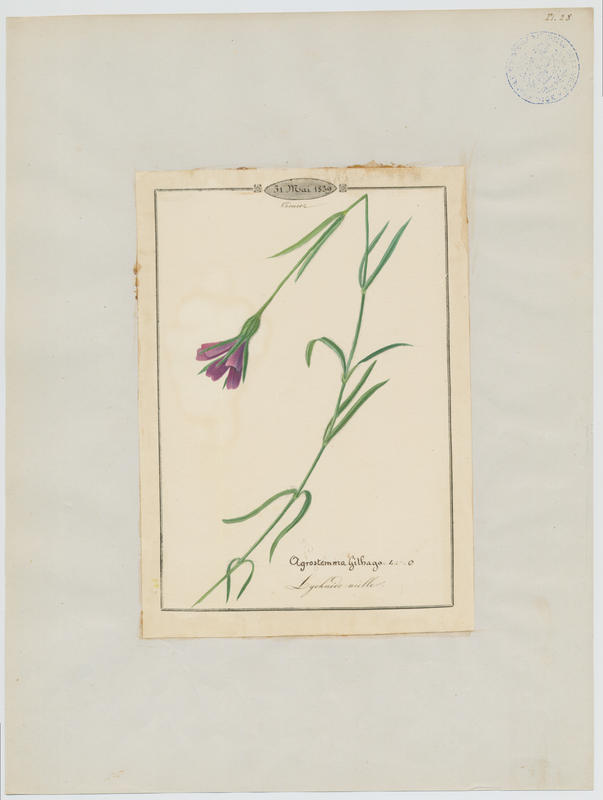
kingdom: Plantae
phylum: Tracheophyta
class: Magnoliopsida
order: Caryophyllales
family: Caryophyllaceae
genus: Agrostemma
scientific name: Agrostemma githago
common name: Common corncockle
